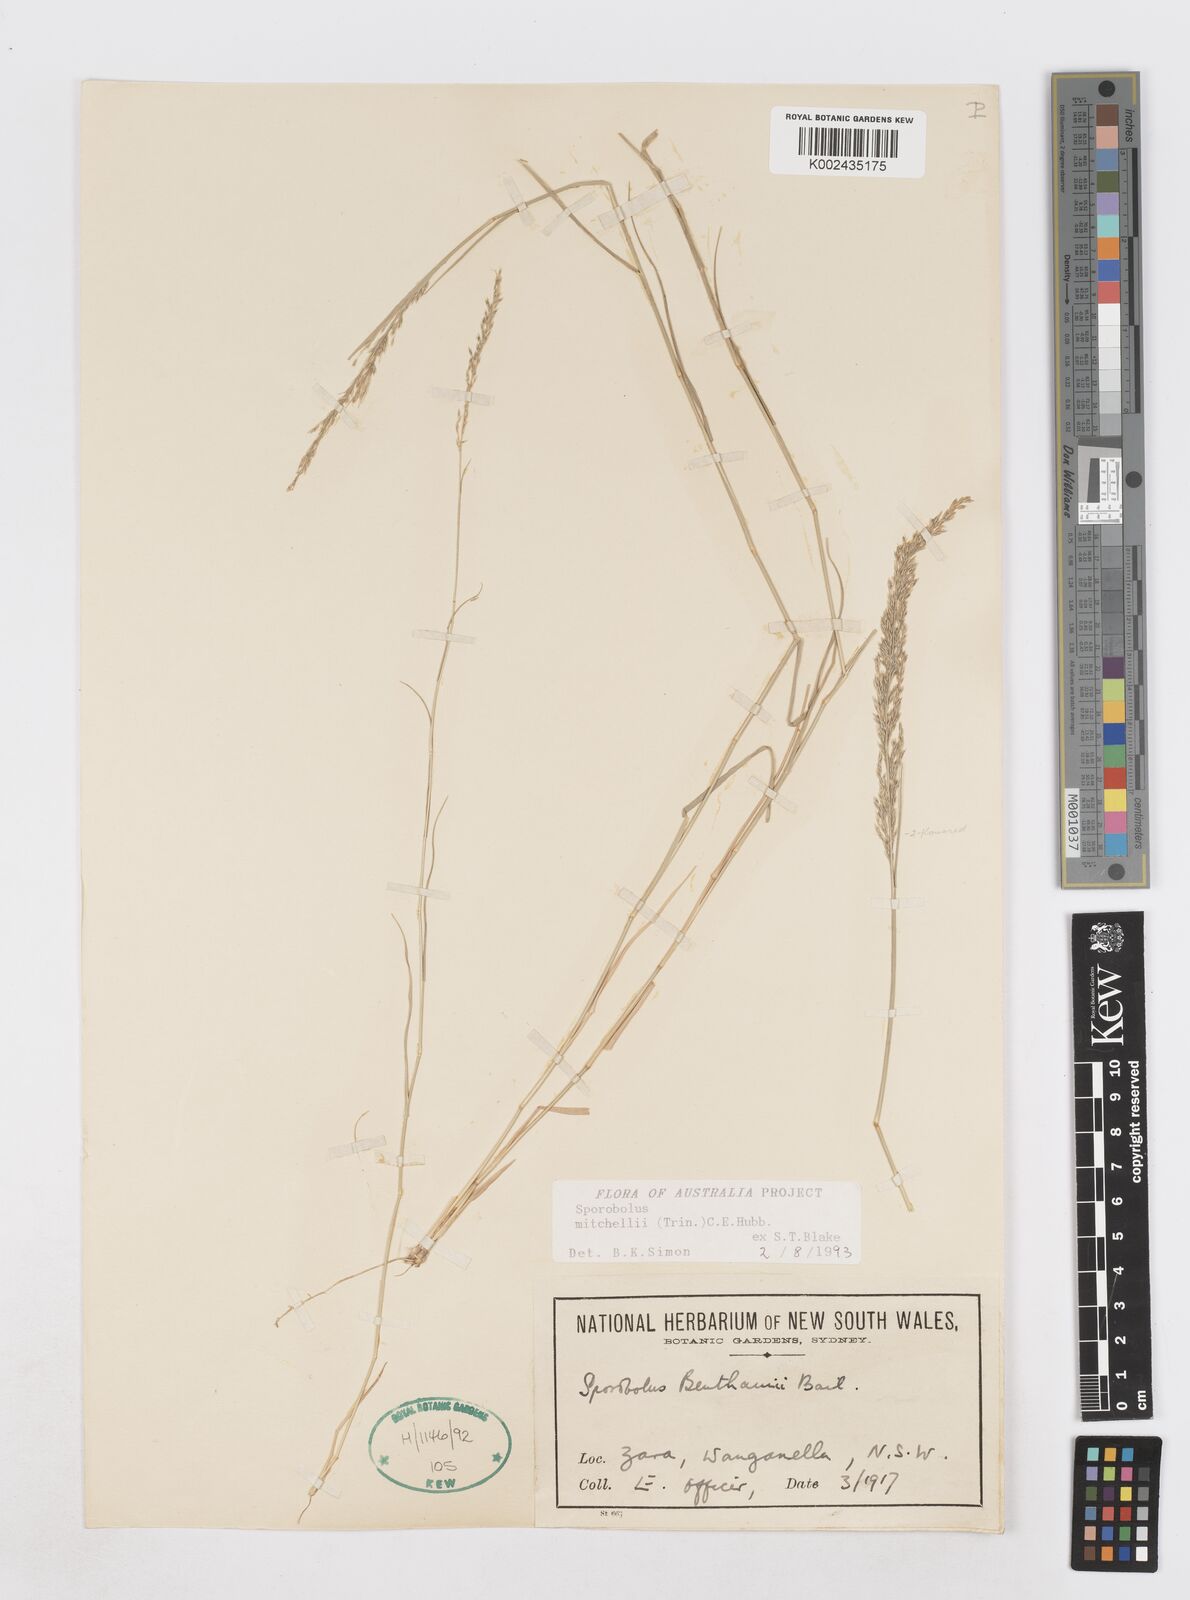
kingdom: Plantae
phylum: Tracheophyta
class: Liliopsida
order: Poales
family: Poaceae
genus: Sporobolus
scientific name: Sporobolus mitchellii
